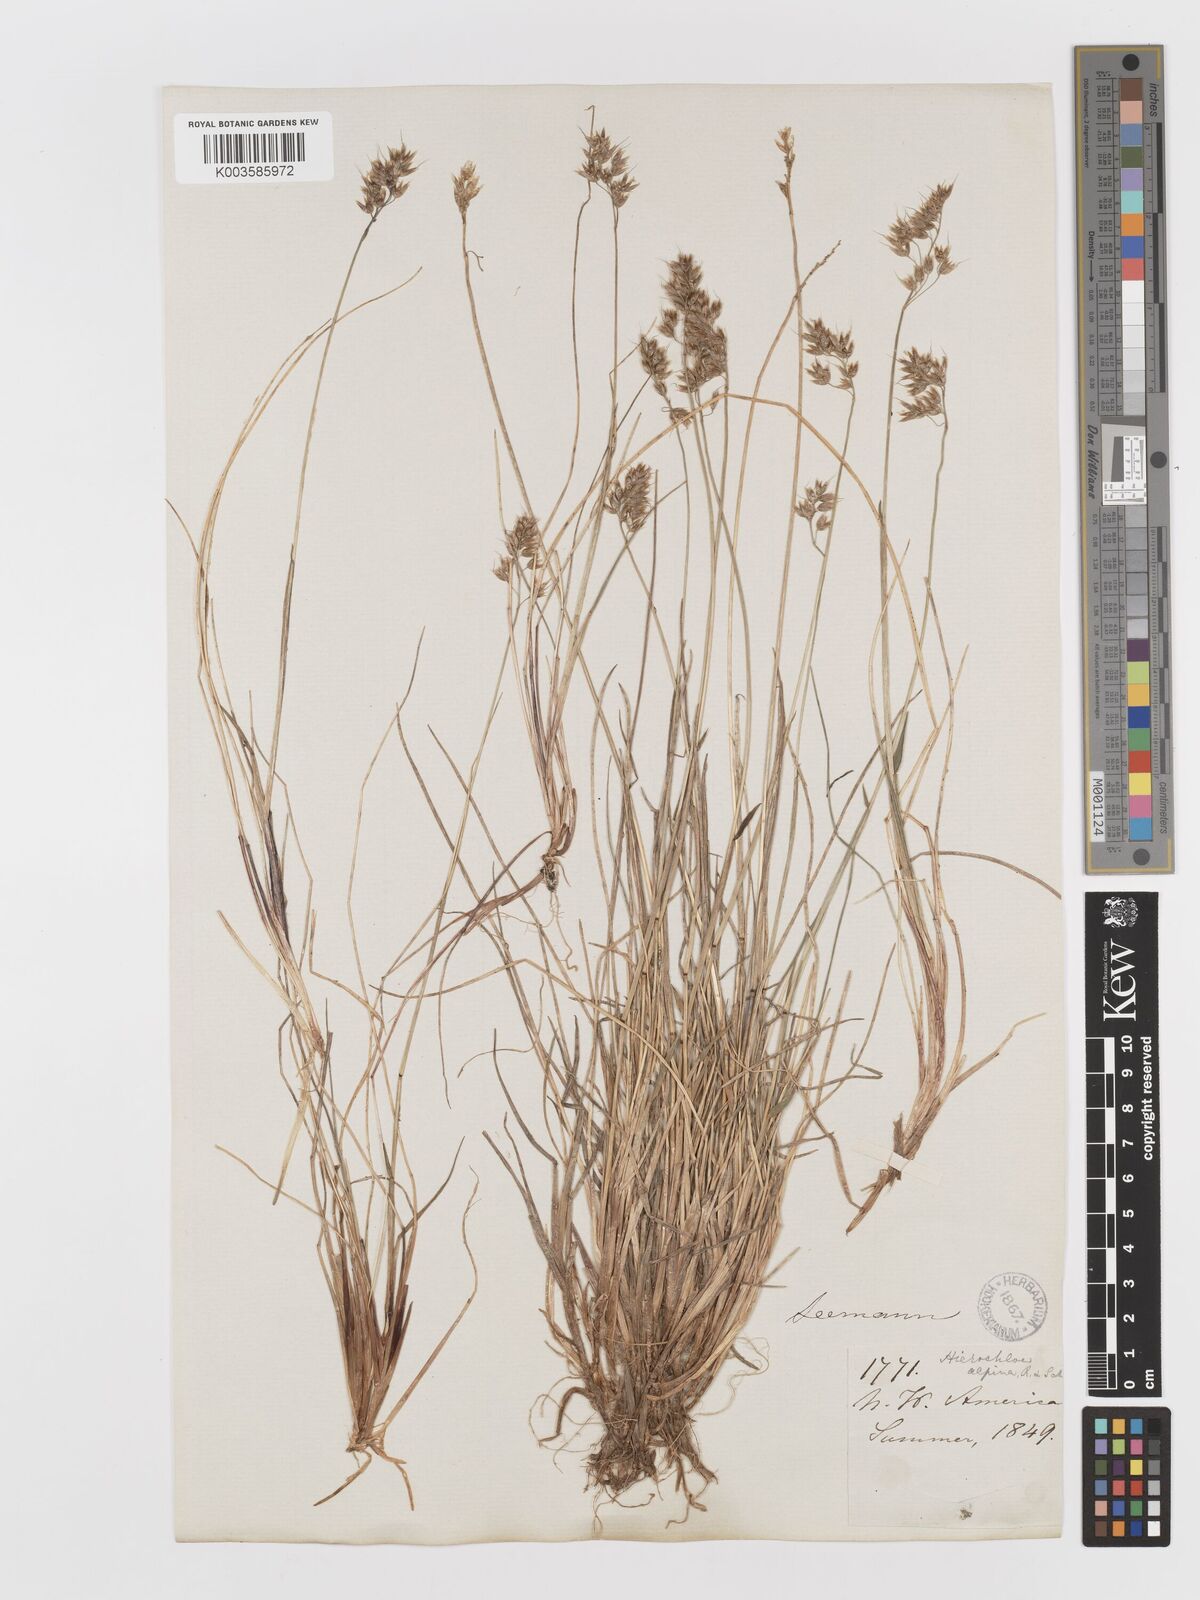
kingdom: Plantae
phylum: Tracheophyta
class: Liliopsida
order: Poales
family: Poaceae
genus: Anthoxanthum
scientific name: Anthoxanthum monticola
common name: Alpine sweetgrass
